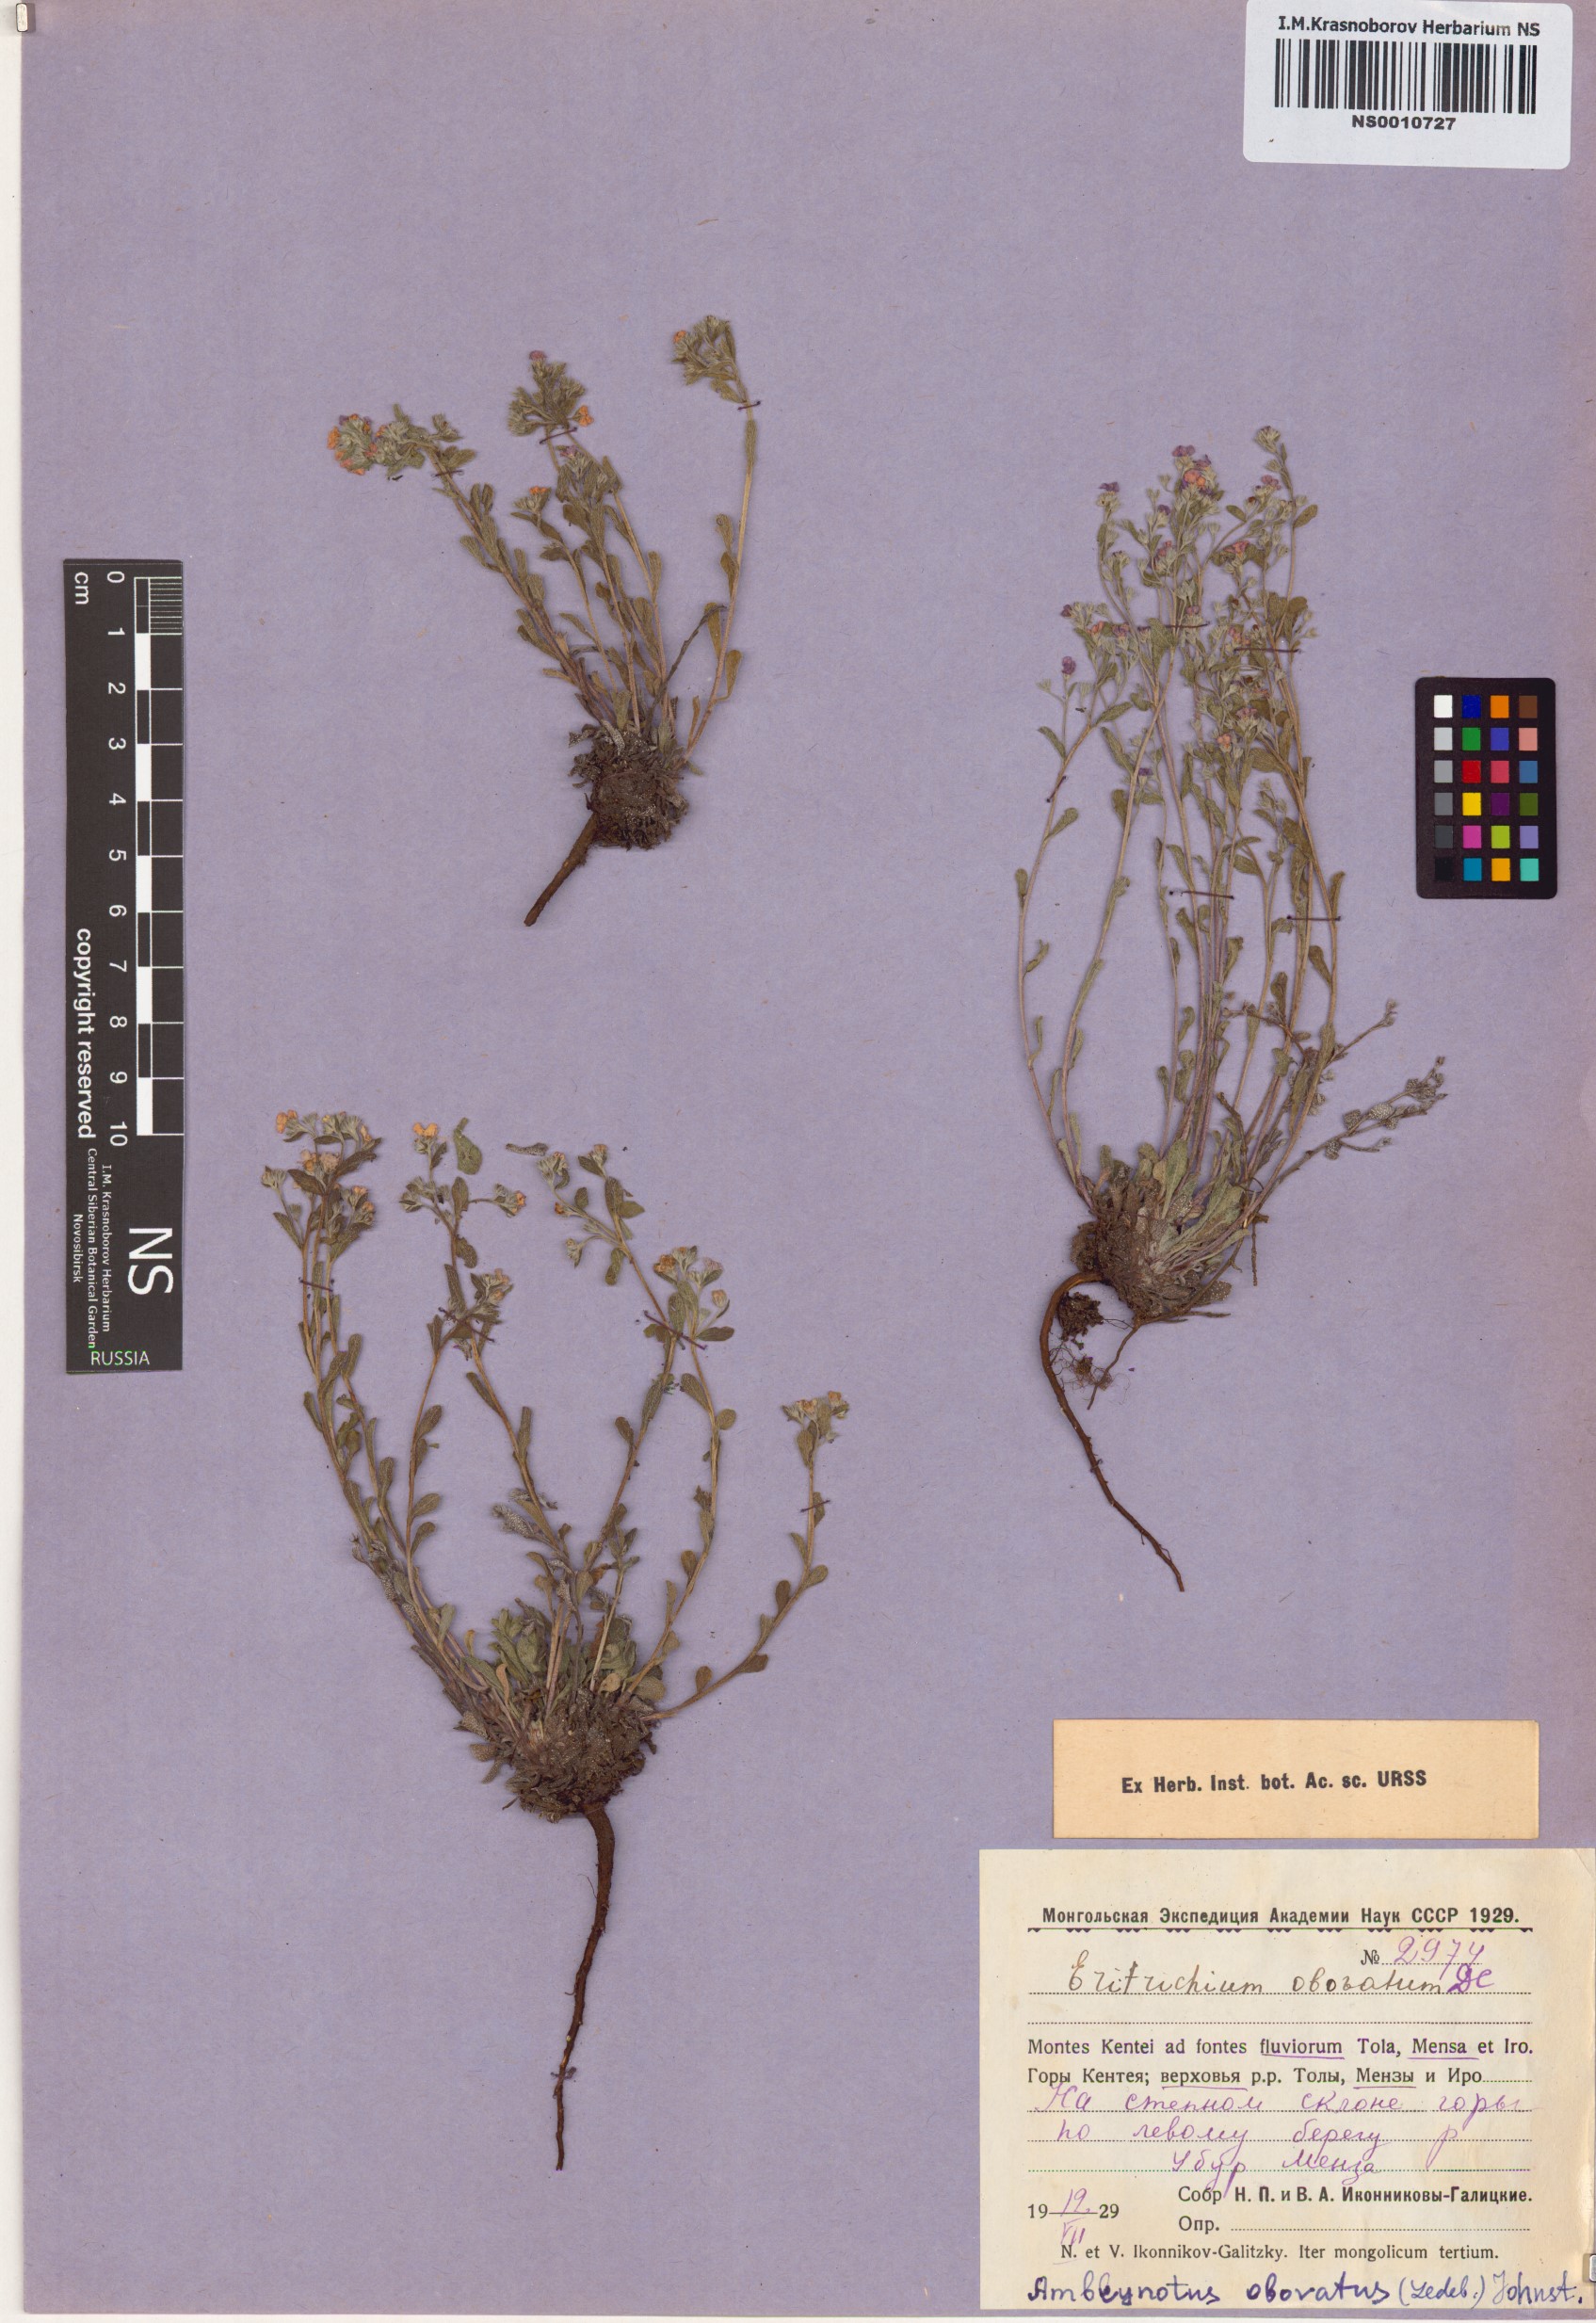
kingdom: Plantae
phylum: Tracheophyta
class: Magnoliopsida
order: Boraginales
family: Boraginaceae
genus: Eritrichium
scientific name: Eritrichium rupestre
